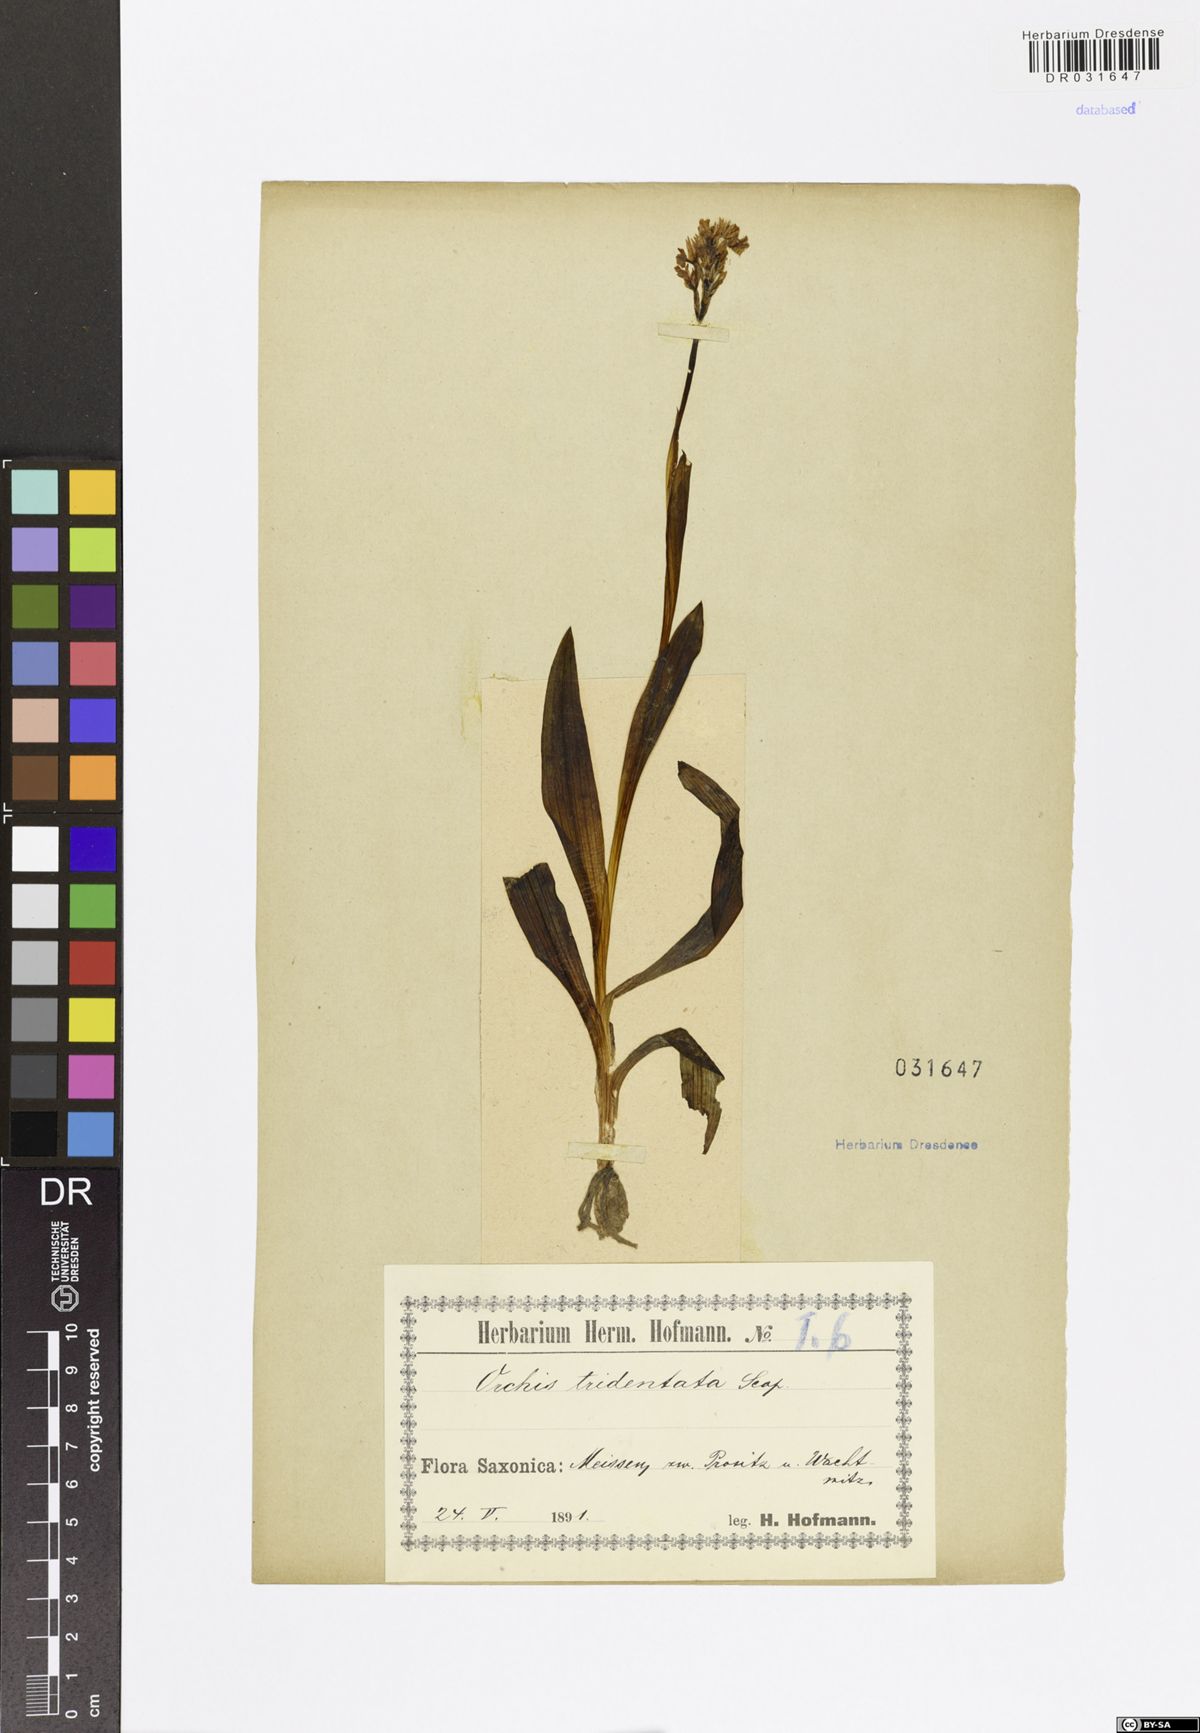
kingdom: Plantae
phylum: Tracheophyta
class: Liliopsida
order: Asparagales
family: Orchidaceae
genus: Neotinea
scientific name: Neotinea tridentata
